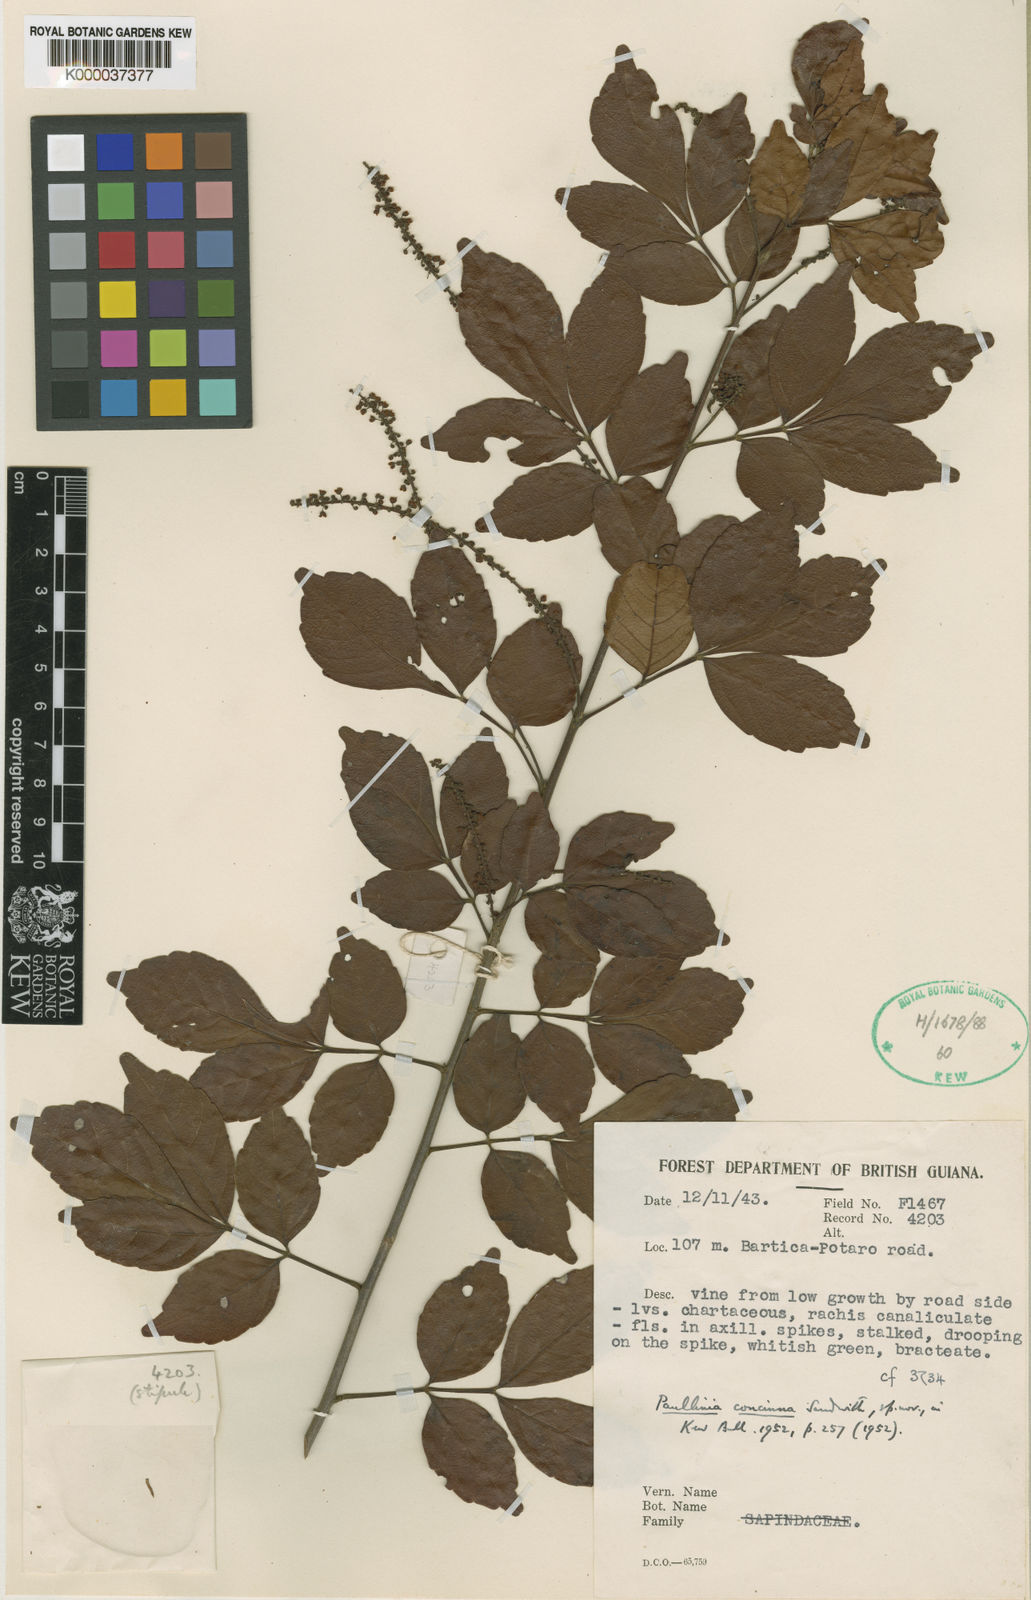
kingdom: Plantae
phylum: Tracheophyta
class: Magnoliopsida
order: Sapindales
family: Sapindaceae
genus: Paullinia
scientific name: Paullinia isoptera
